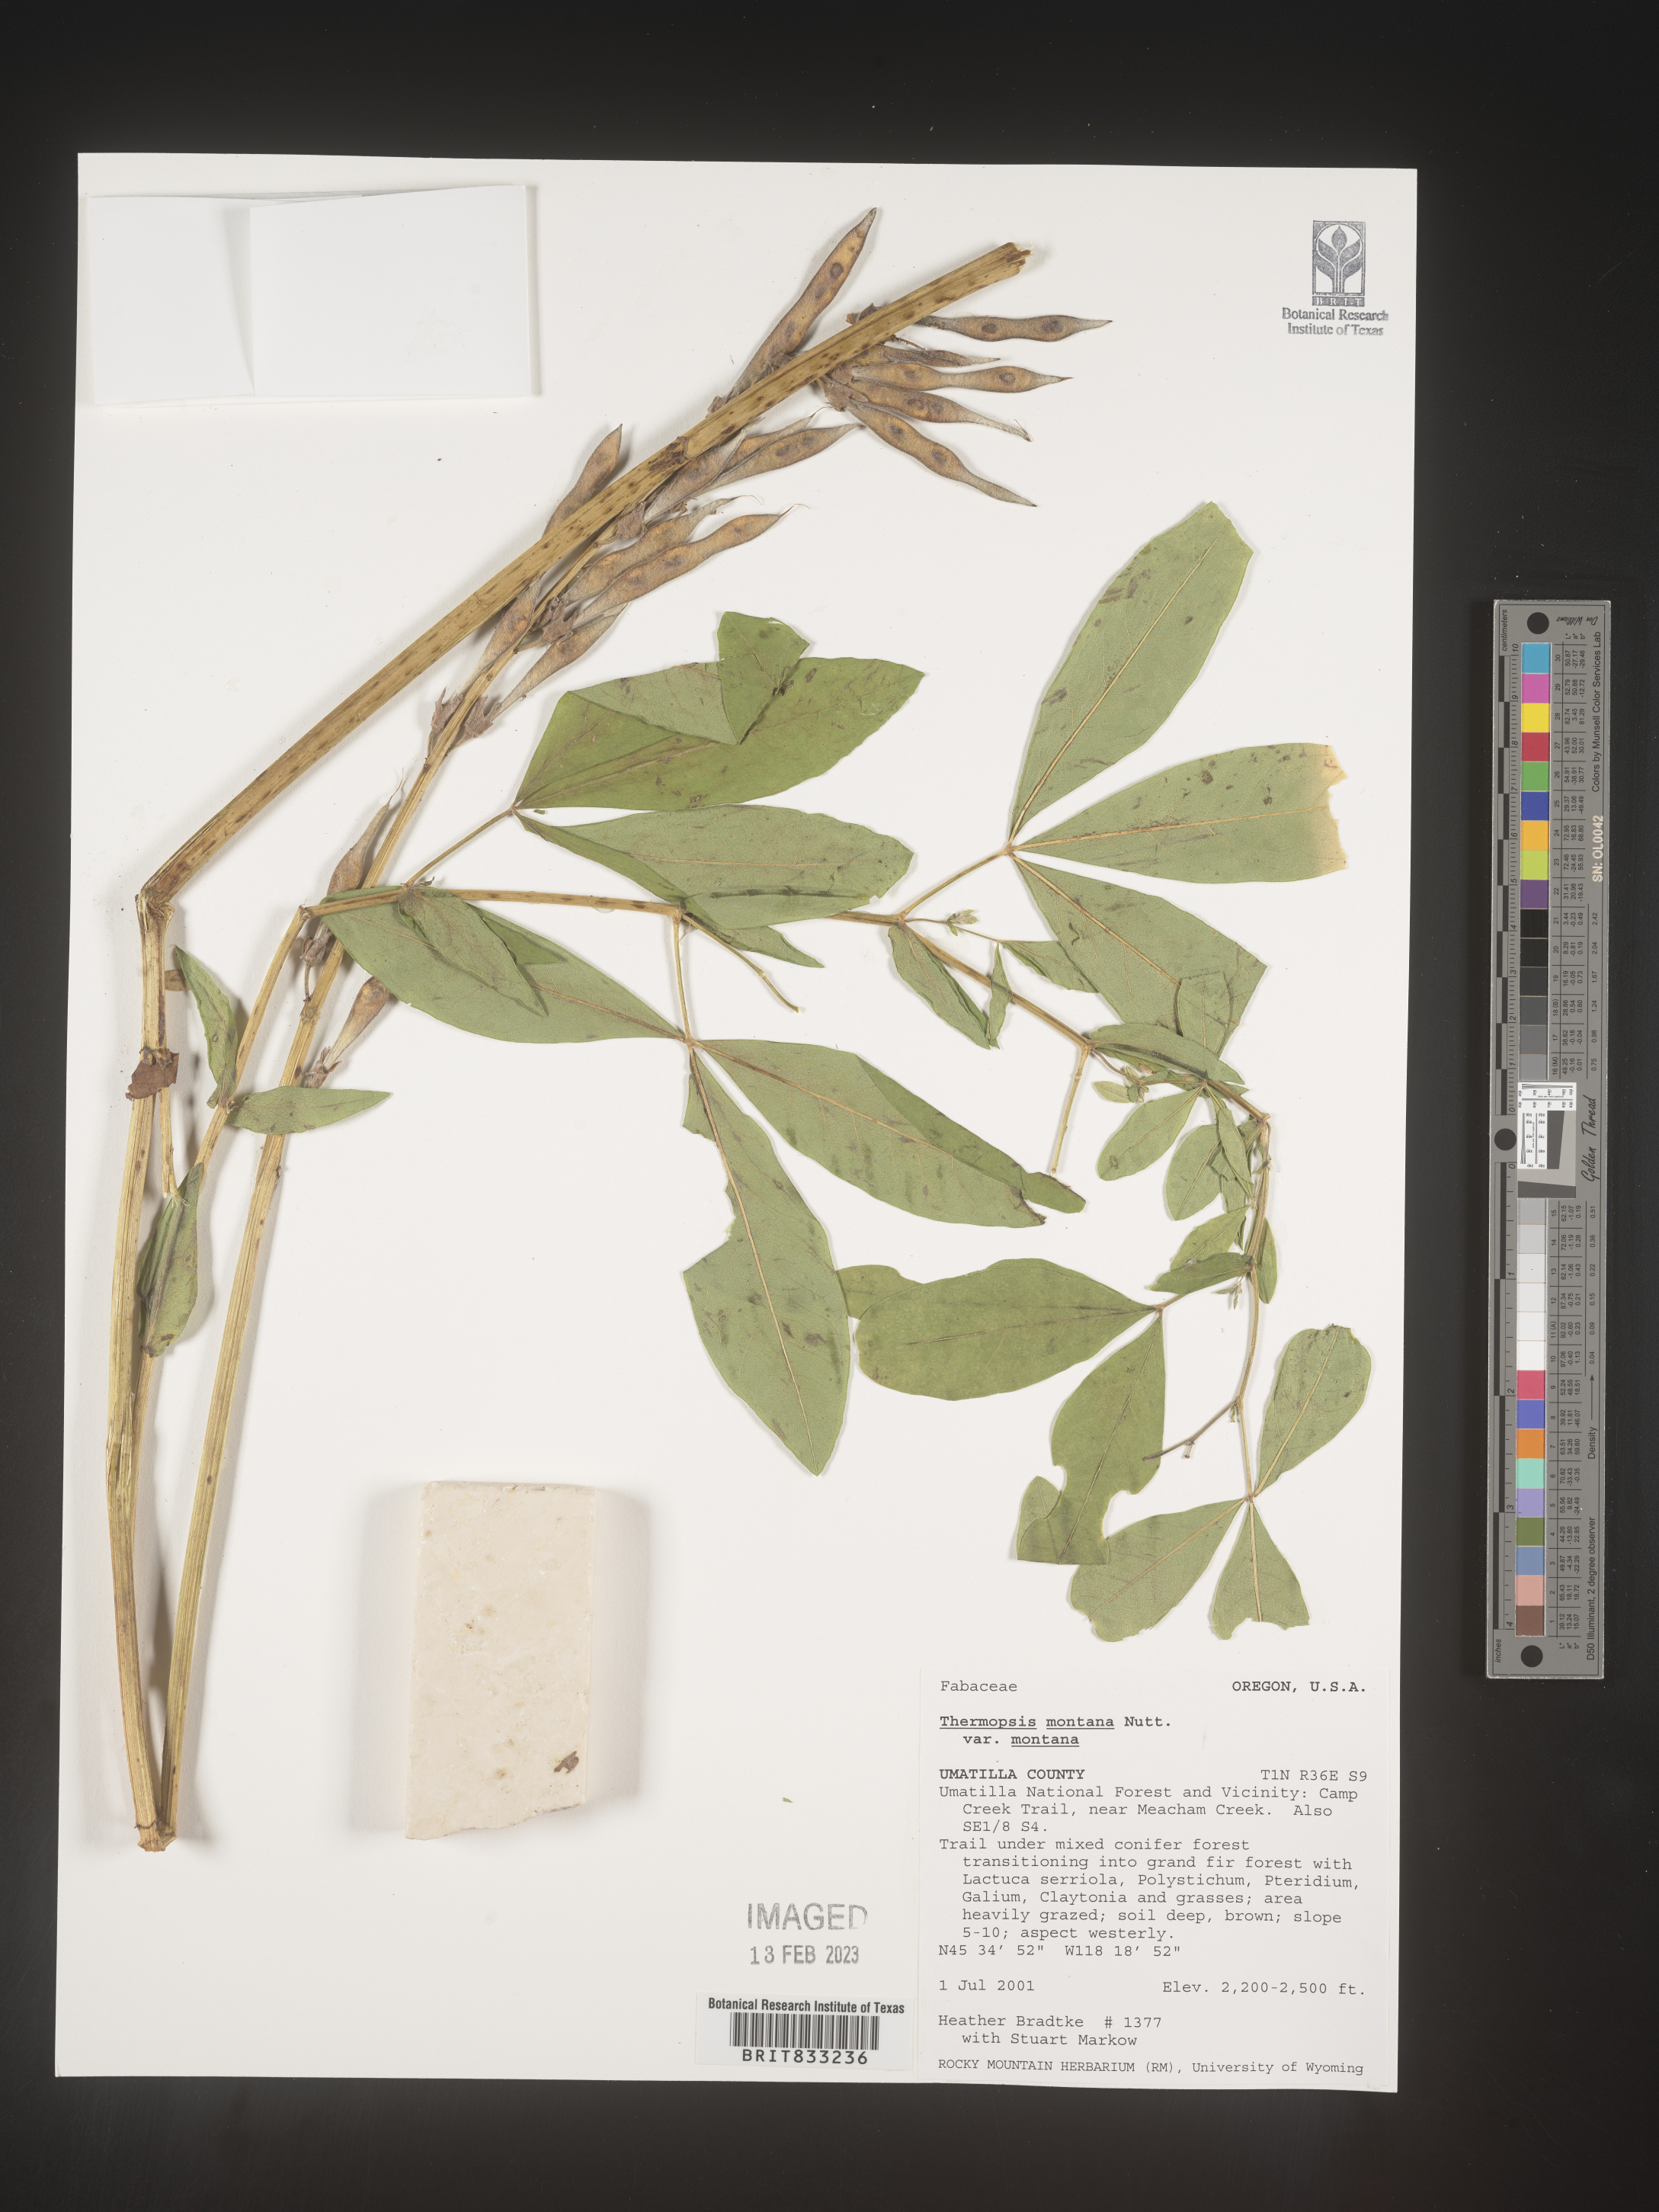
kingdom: Plantae
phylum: Tracheophyta
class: Magnoliopsida
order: Fabales
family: Fabaceae
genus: Thermopsis
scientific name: Thermopsis montana
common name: False lupin
